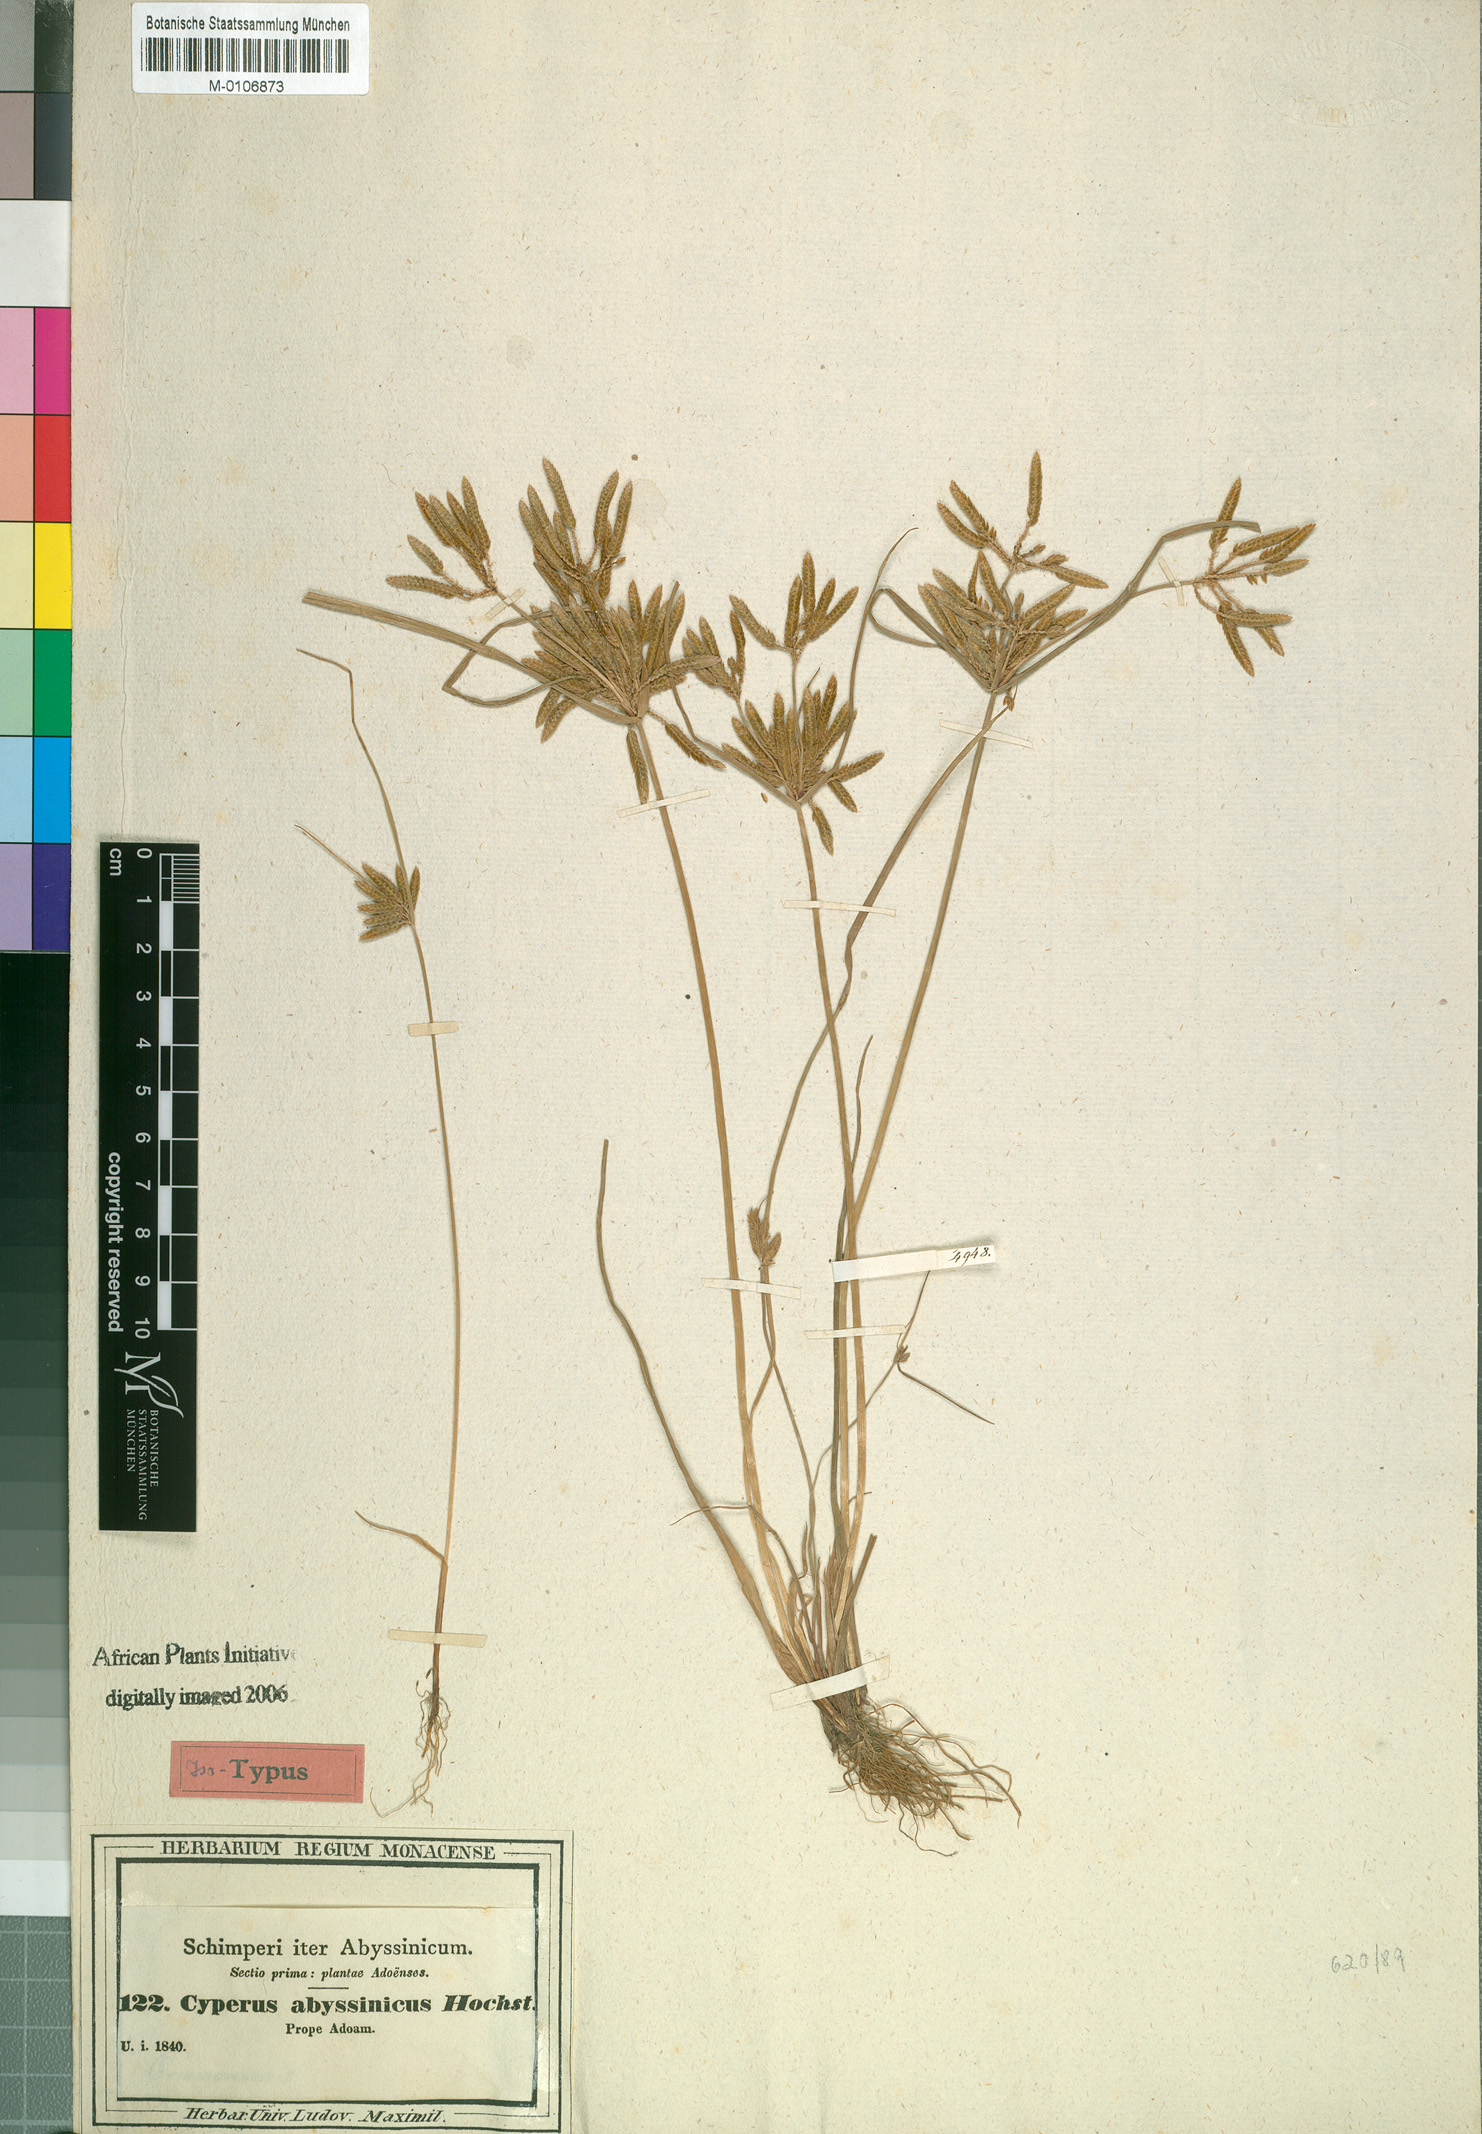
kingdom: Plantae
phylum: Tracheophyta
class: Liliopsida
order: Poales
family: Cyperaceae
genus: Cyperus
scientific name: Cyperus flavescens
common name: Yellow galingale
